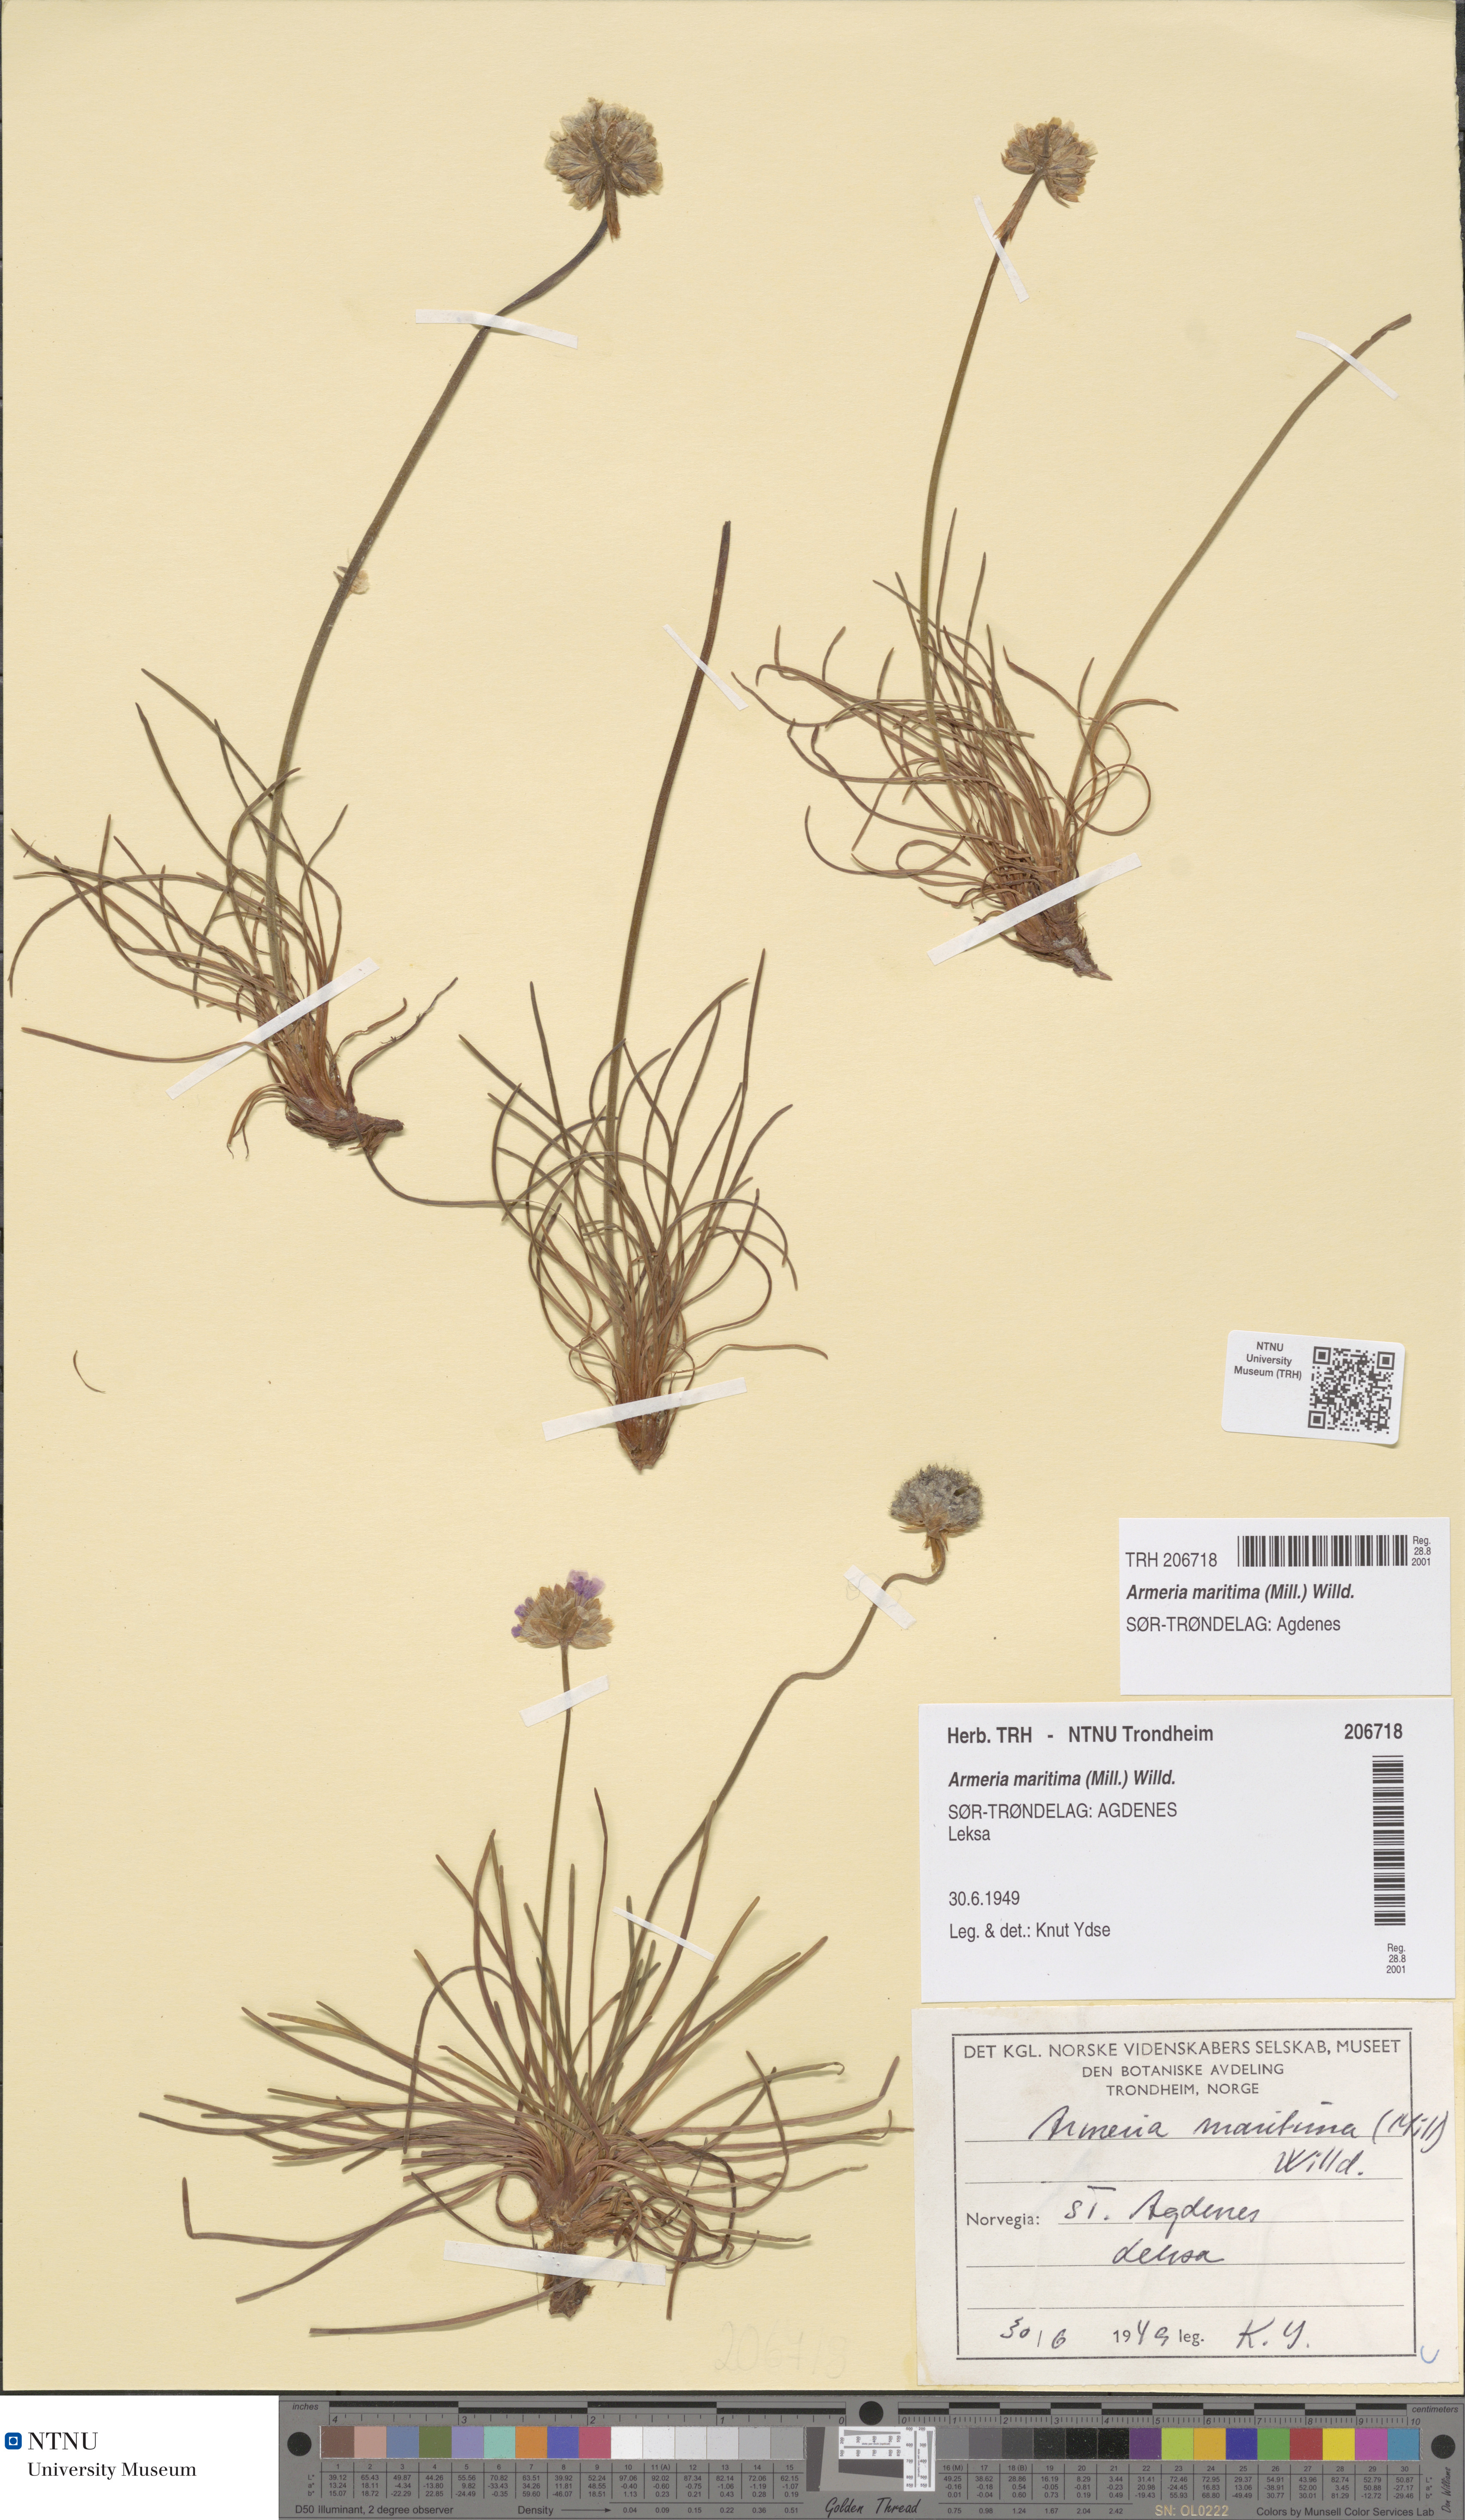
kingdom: Plantae
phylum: Tracheophyta
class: Magnoliopsida
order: Caryophyllales
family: Plumbaginaceae
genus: Armeria
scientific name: Armeria maritima
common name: Thrift
